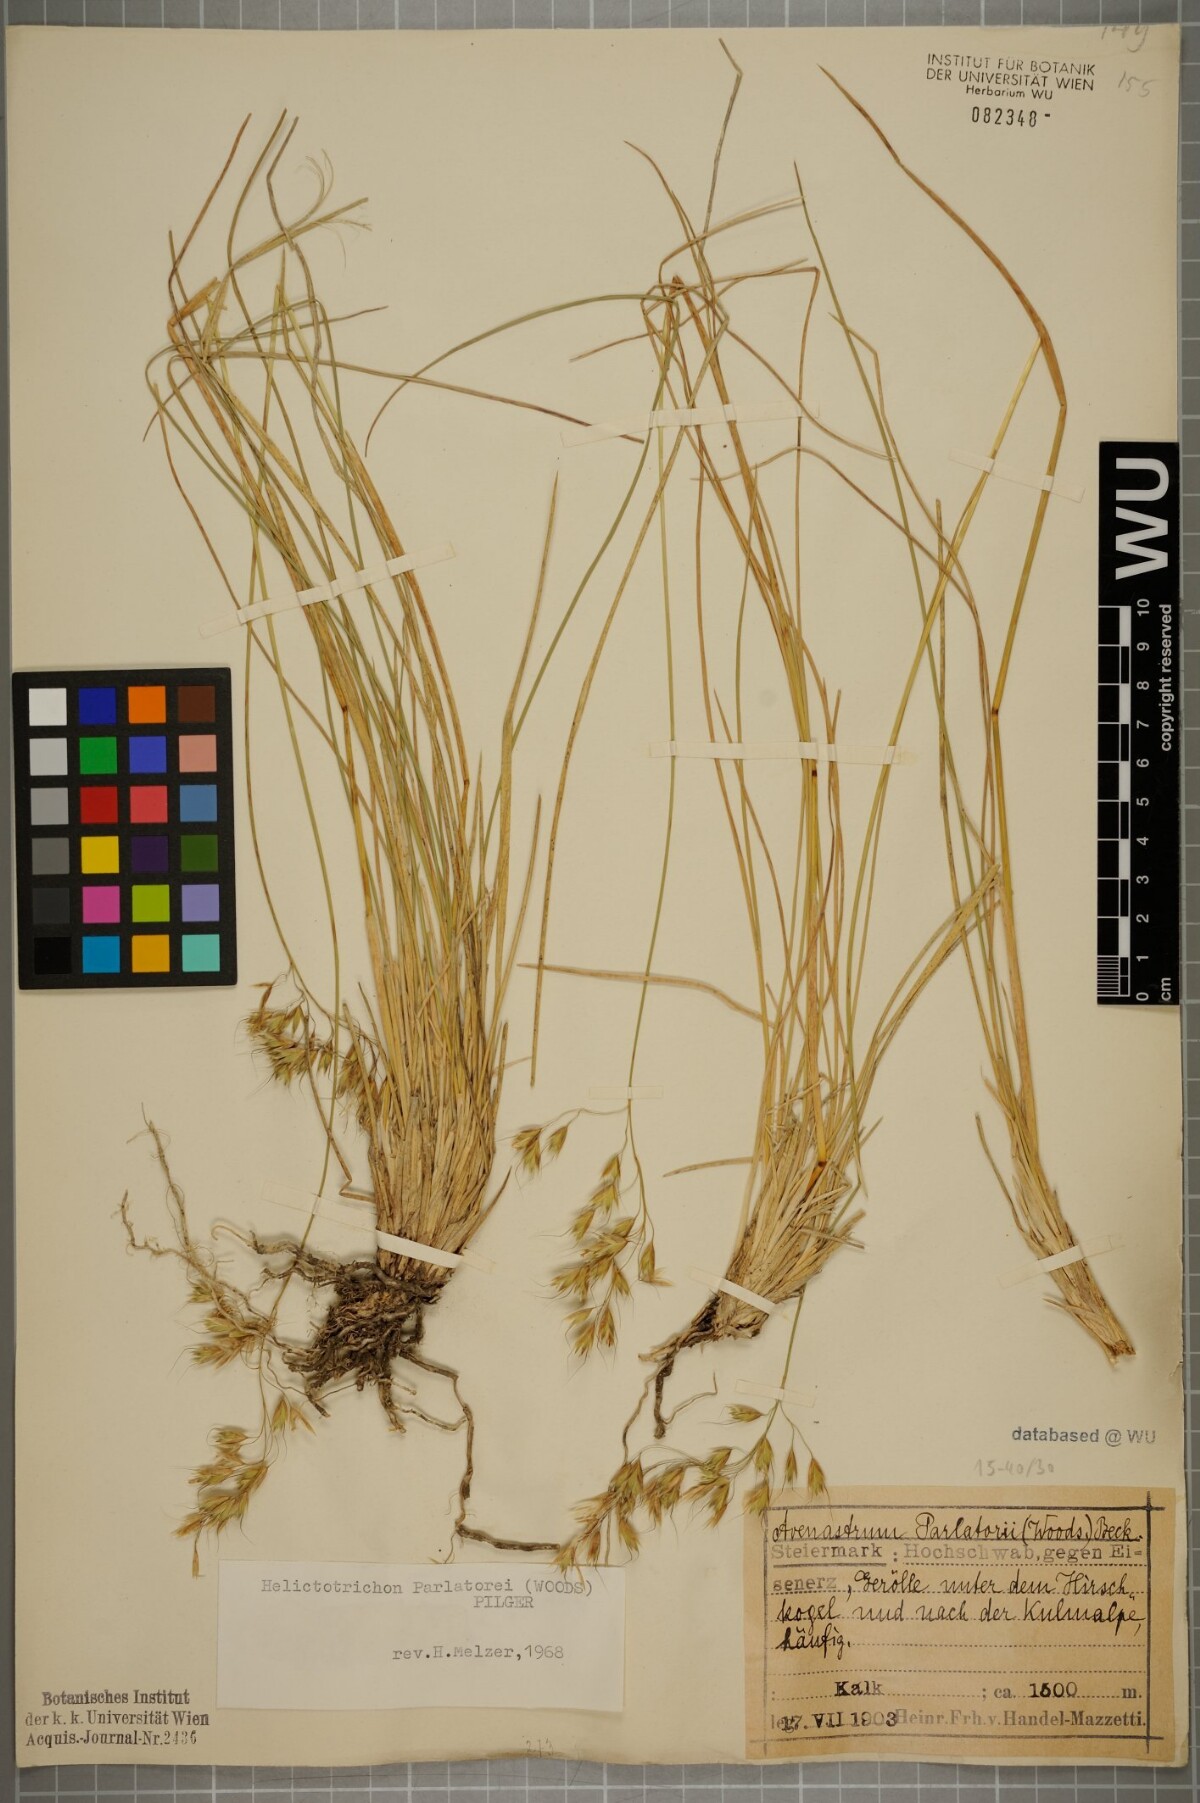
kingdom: Plantae
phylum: Tracheophyta
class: Liliopsida
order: Poales
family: Poaceae
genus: Helictotrichon
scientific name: Helictotrichon parlatorei
